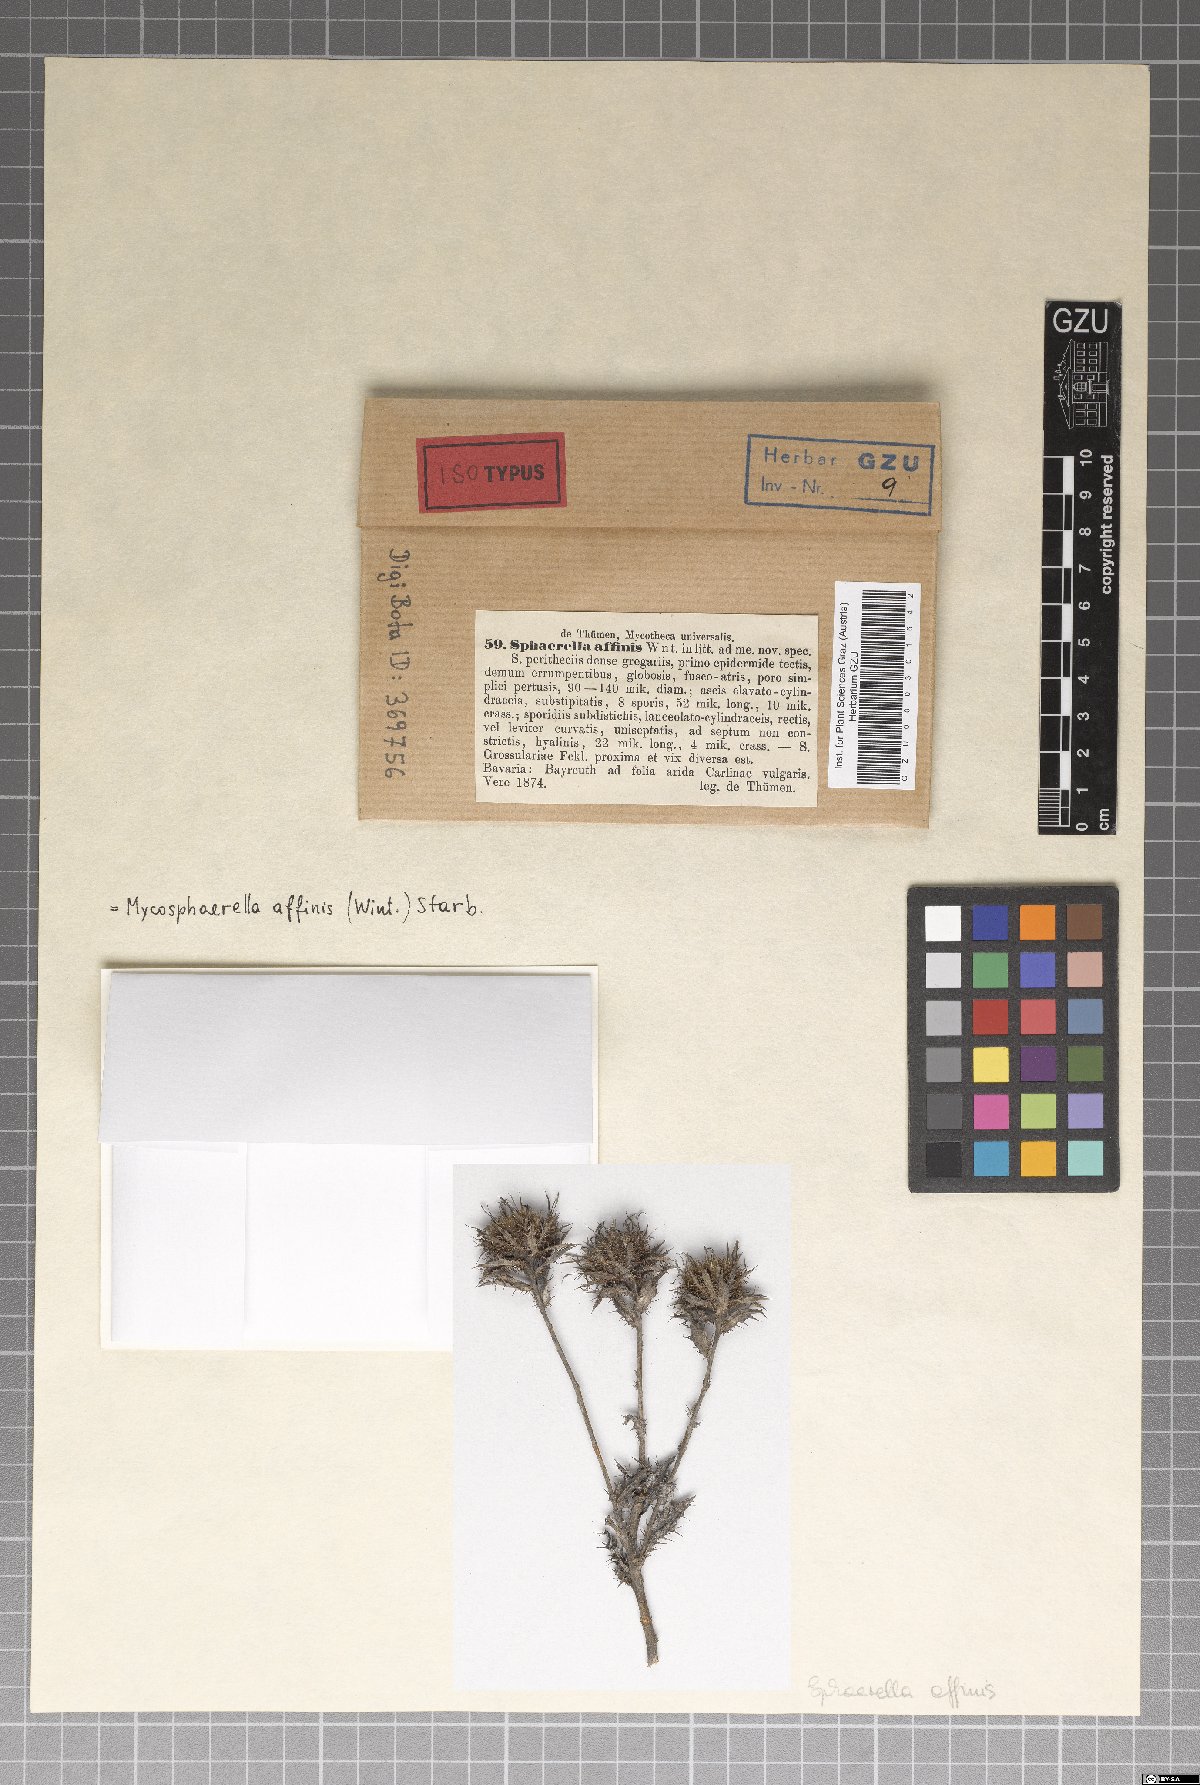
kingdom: Fungi
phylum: Ascomycota
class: Dothideomycetes
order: Mycosphaerellales
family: Mycosphaerellaceae
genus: Passalora
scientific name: Passalora carlinae
